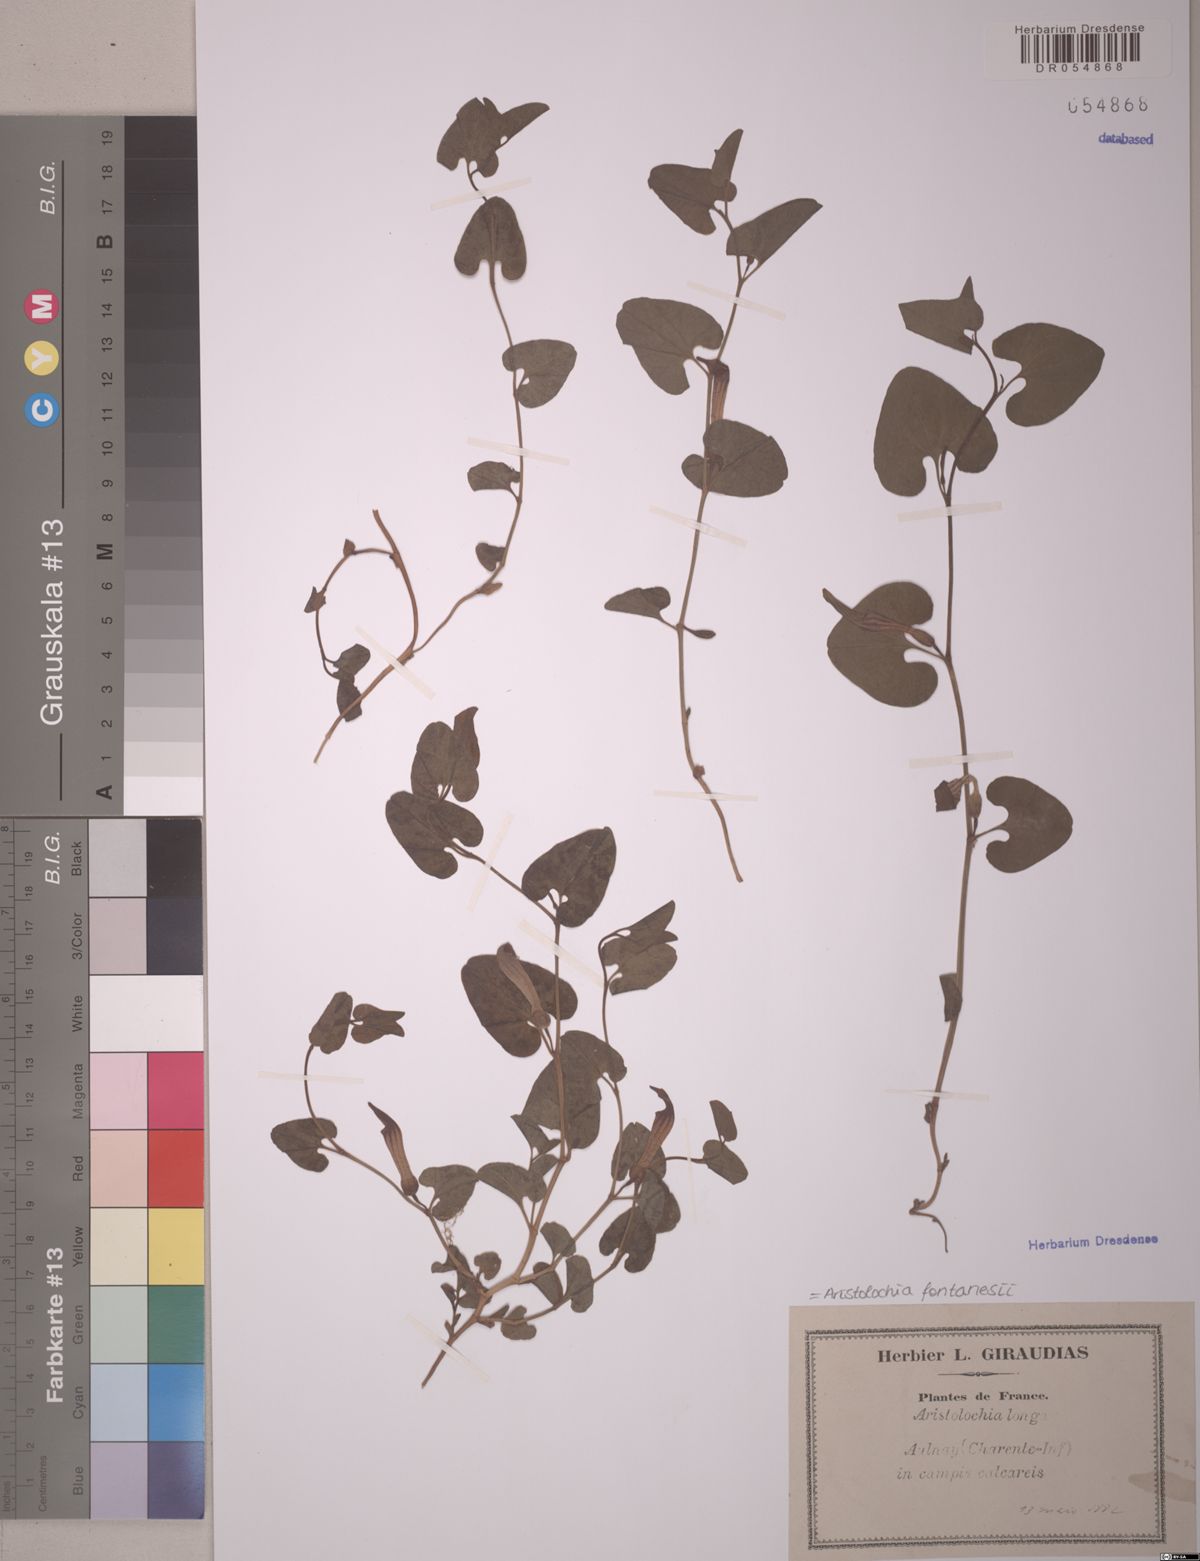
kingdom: Plantae
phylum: Tracheophyta
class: Magnoliopsida
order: Piperales
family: Aristolochiaceae
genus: Aristolochia
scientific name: Aristolochia fontanesii
